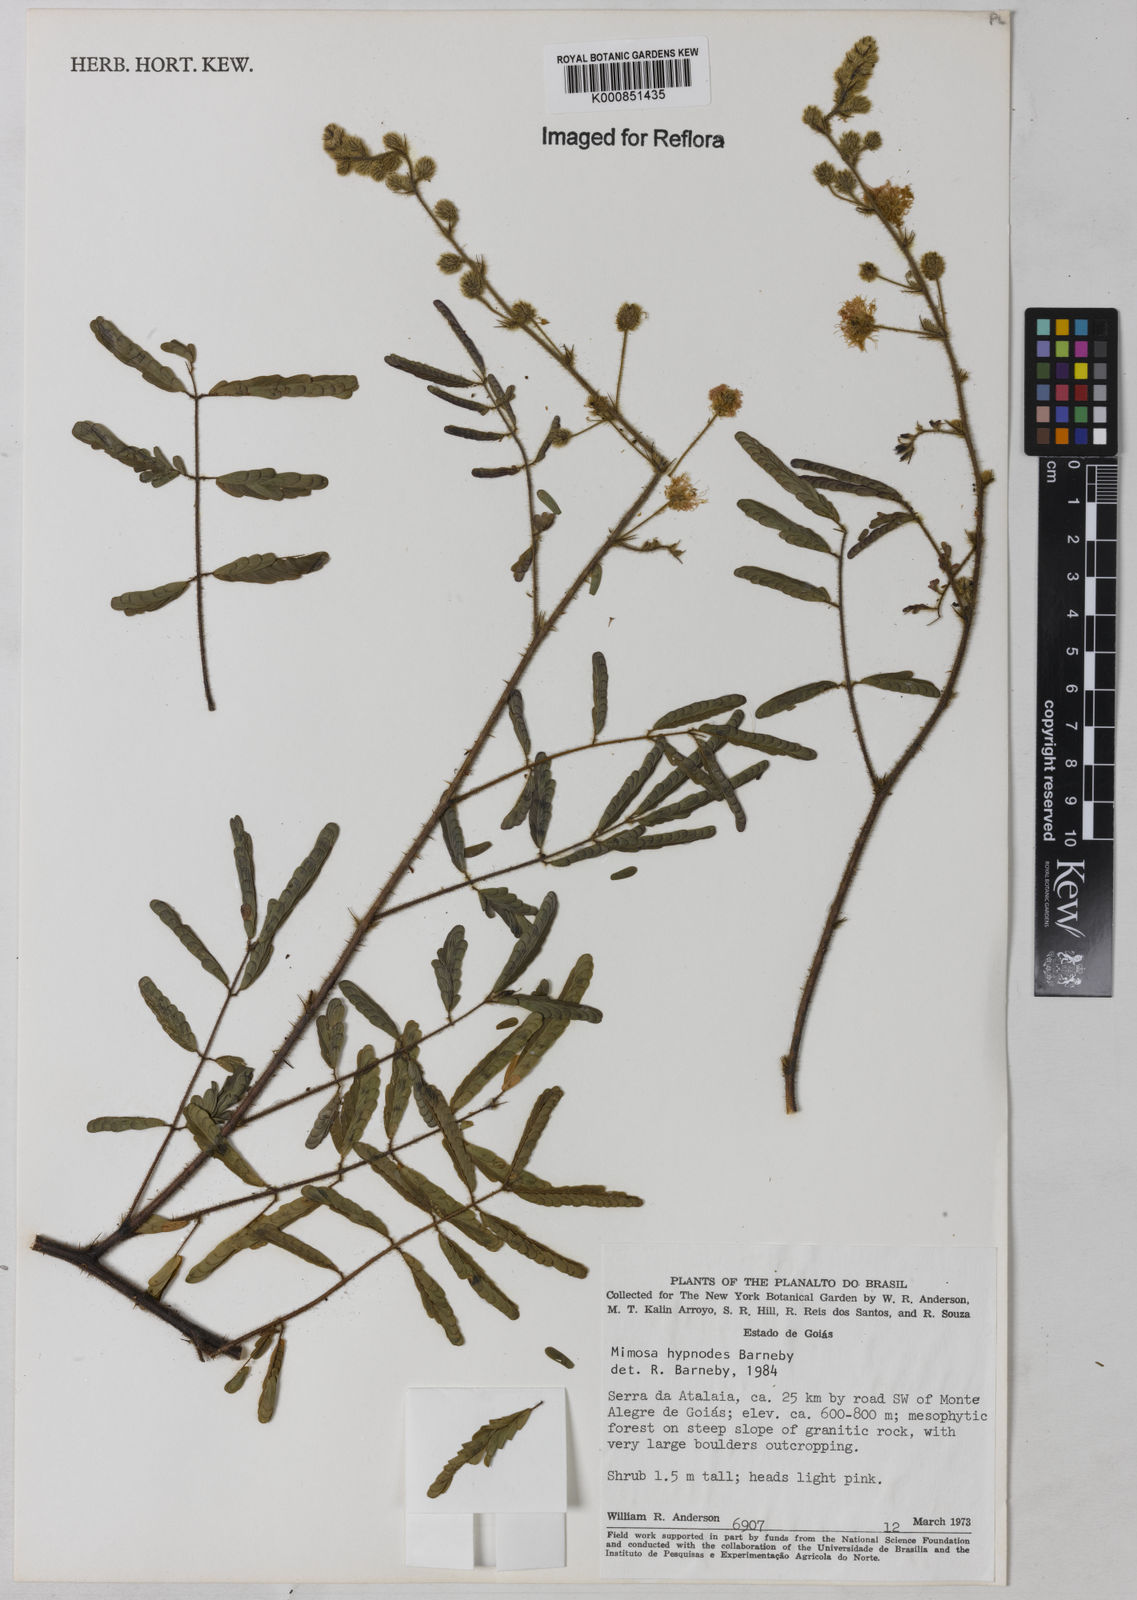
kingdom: Plantae
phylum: Tracheophyta
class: Magnoliopsida
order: Fabales
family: Fabaceae
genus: Mimosa
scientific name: Mimosa hypnodes
